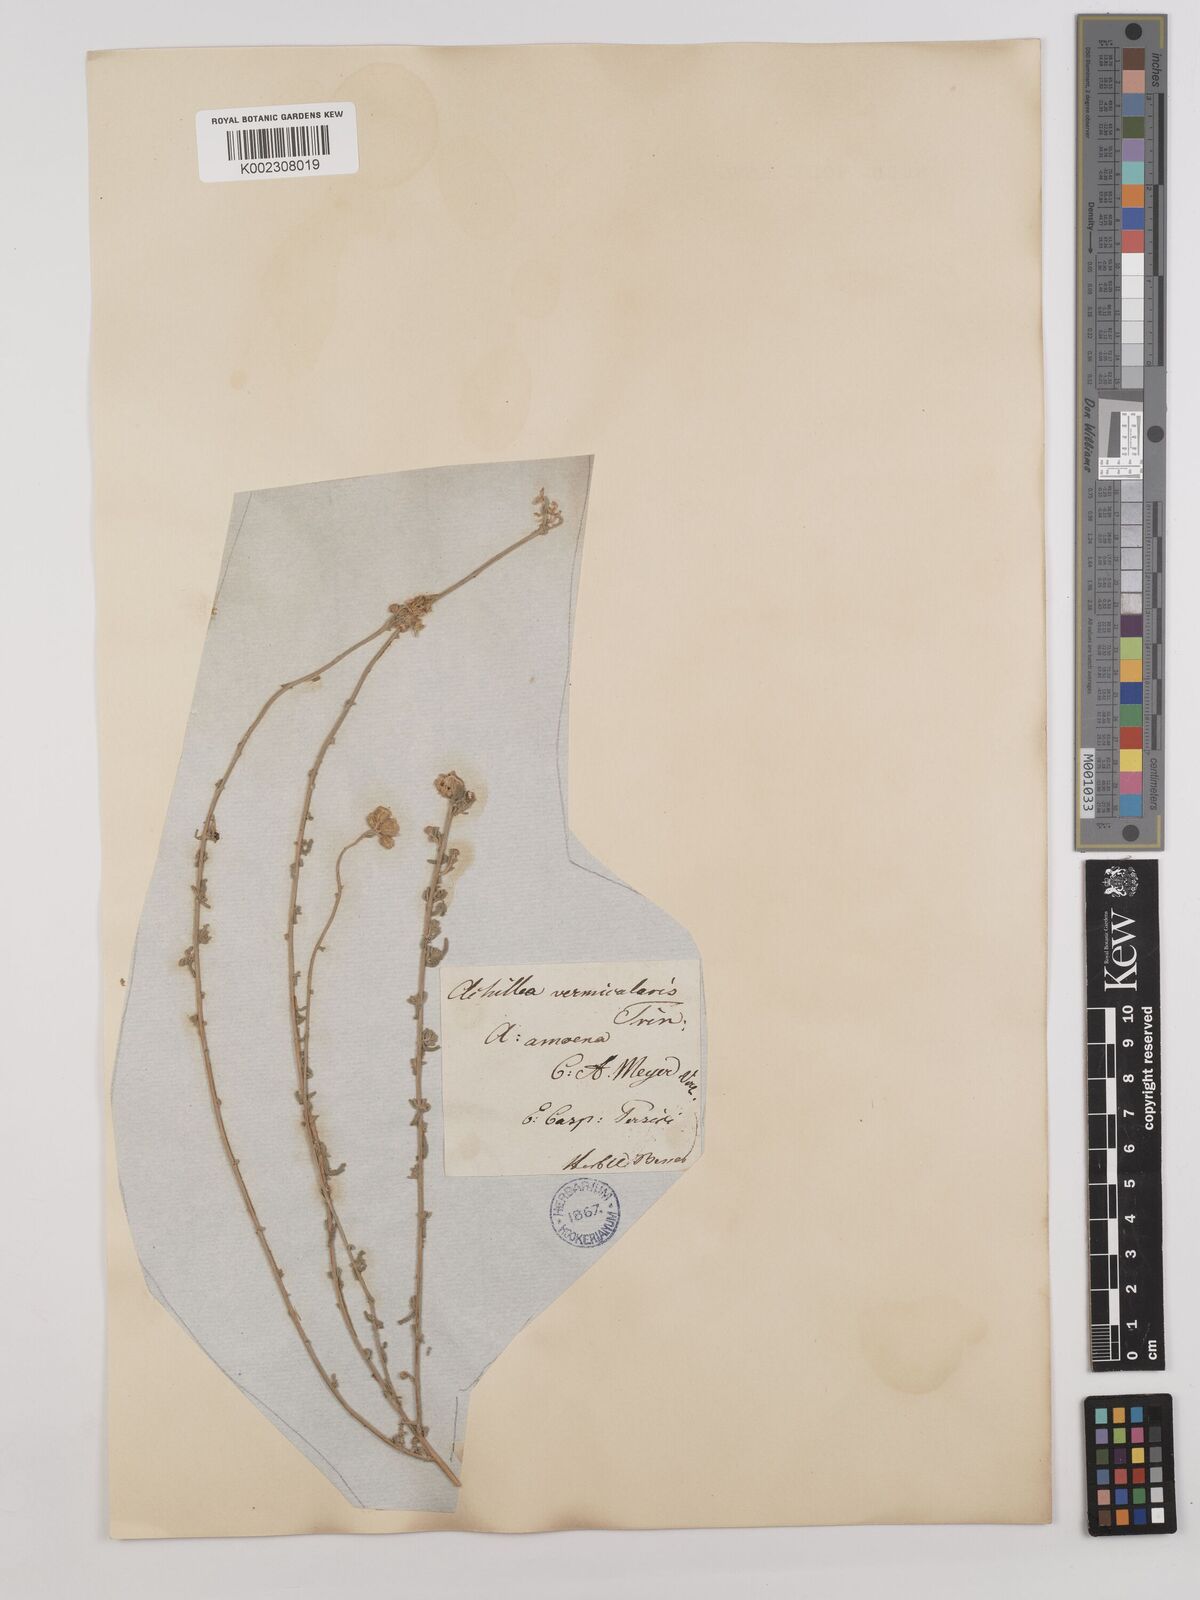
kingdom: Plantae
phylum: Tracheophyta
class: Magnoliopsida
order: Asterales
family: Asteraceae
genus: Achillea
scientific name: Achillea vermicularis
